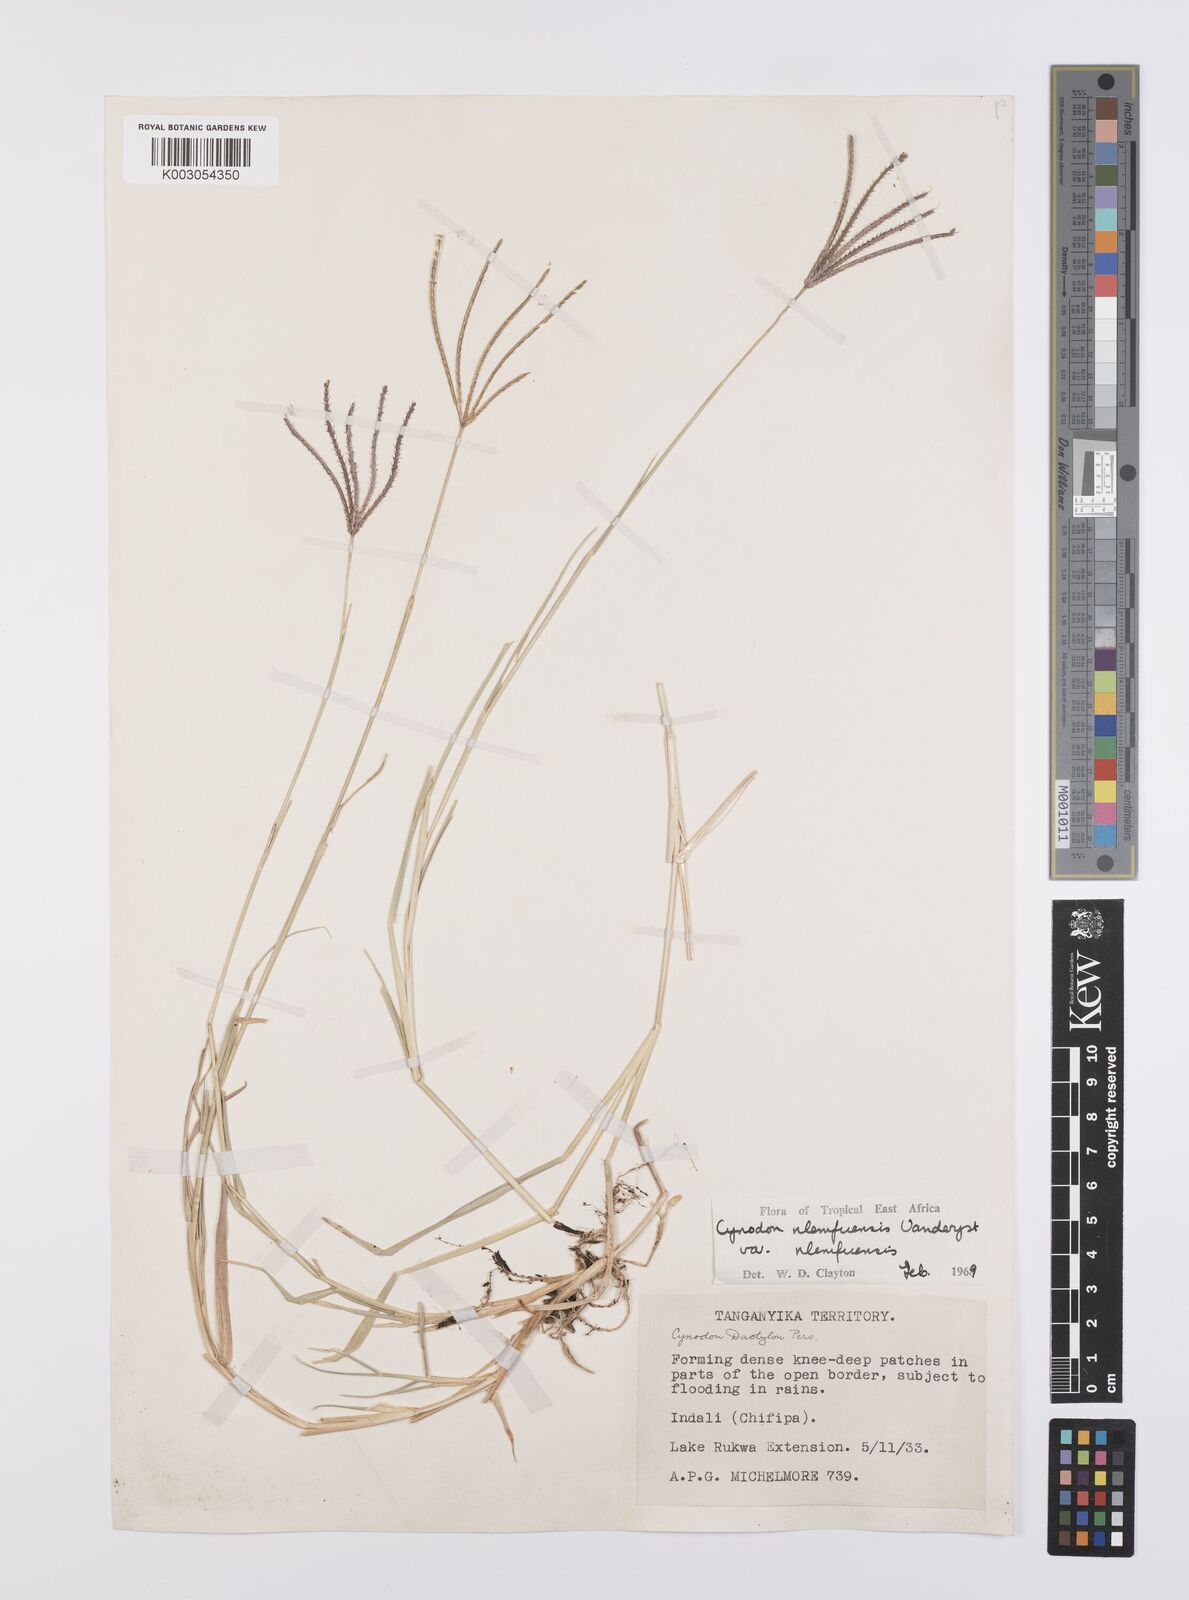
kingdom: Plantae
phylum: Tracheophyta
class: Liliopsida
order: Poales
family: Poaceae
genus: Cynodon
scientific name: Cynodon nlemfuensis
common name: African bermudagrass
